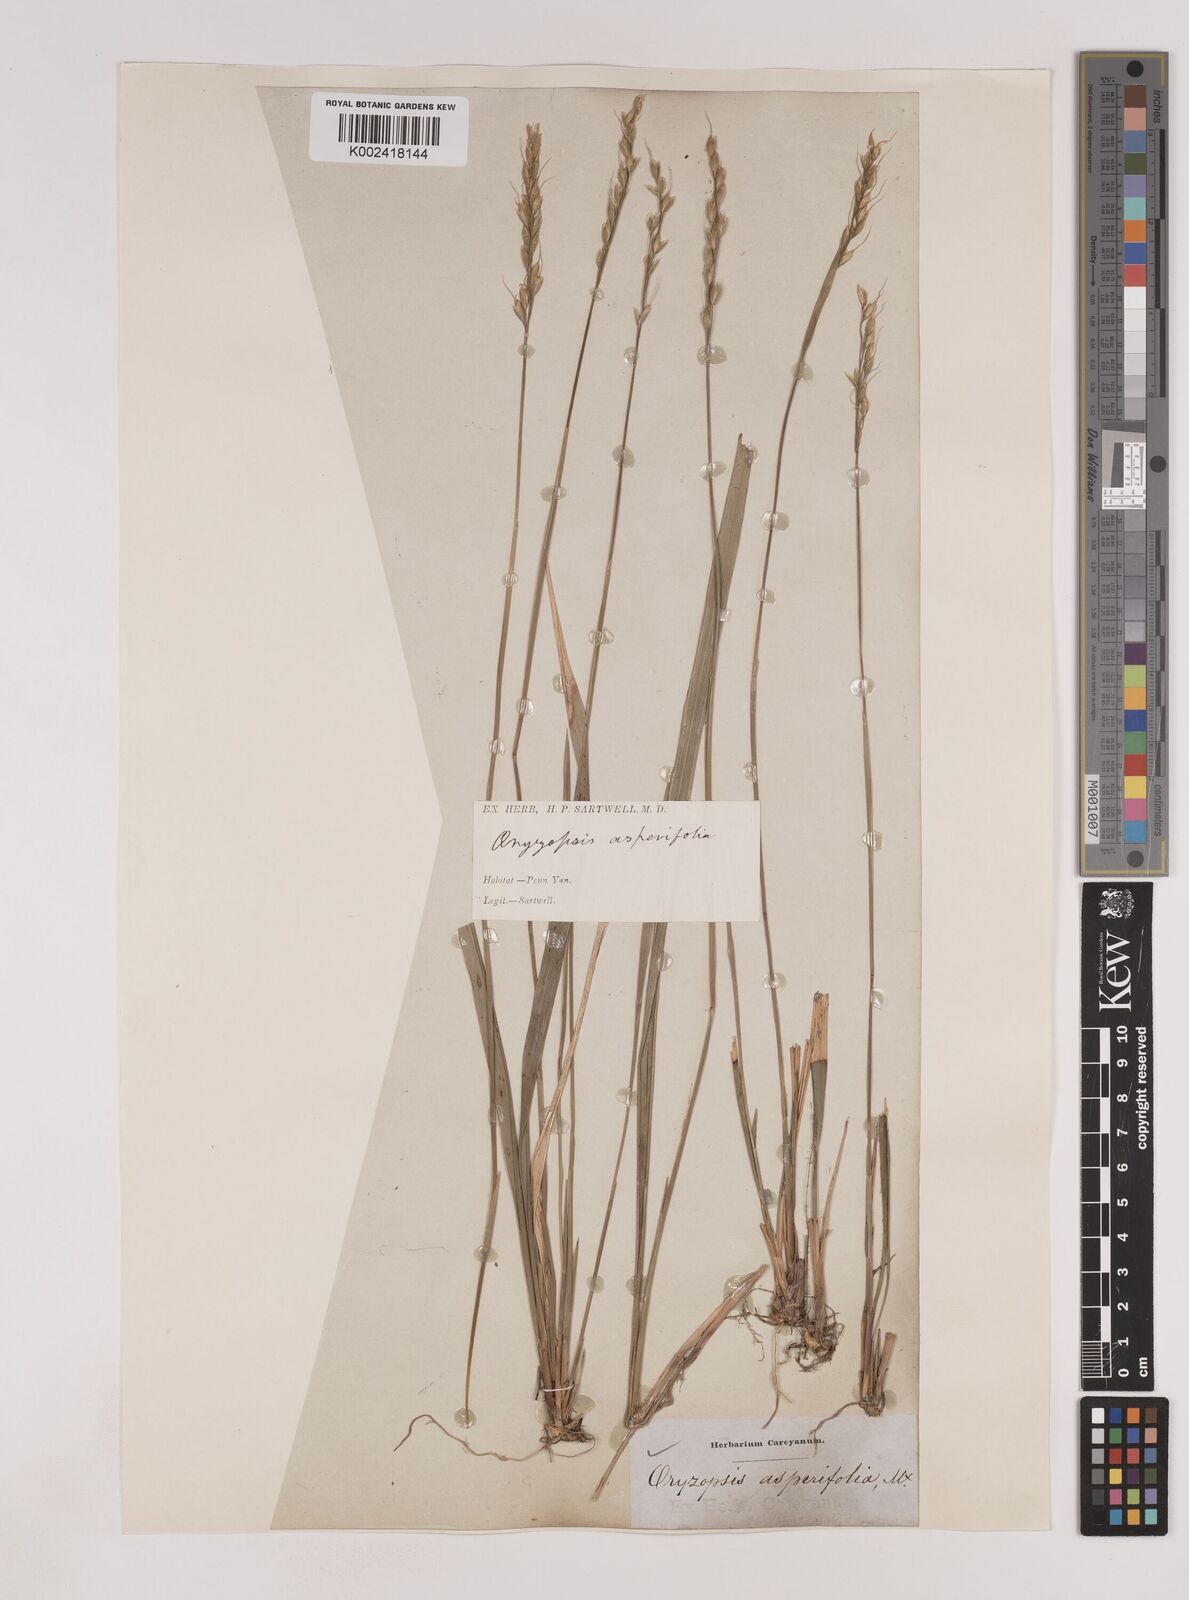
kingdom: Plantae
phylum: Tracheophyta
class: Liliopsida
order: Poales
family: Poaceae
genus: Oryzopsis
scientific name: Oryzopsis asperifolia
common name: Rough-leaved mountain rice
